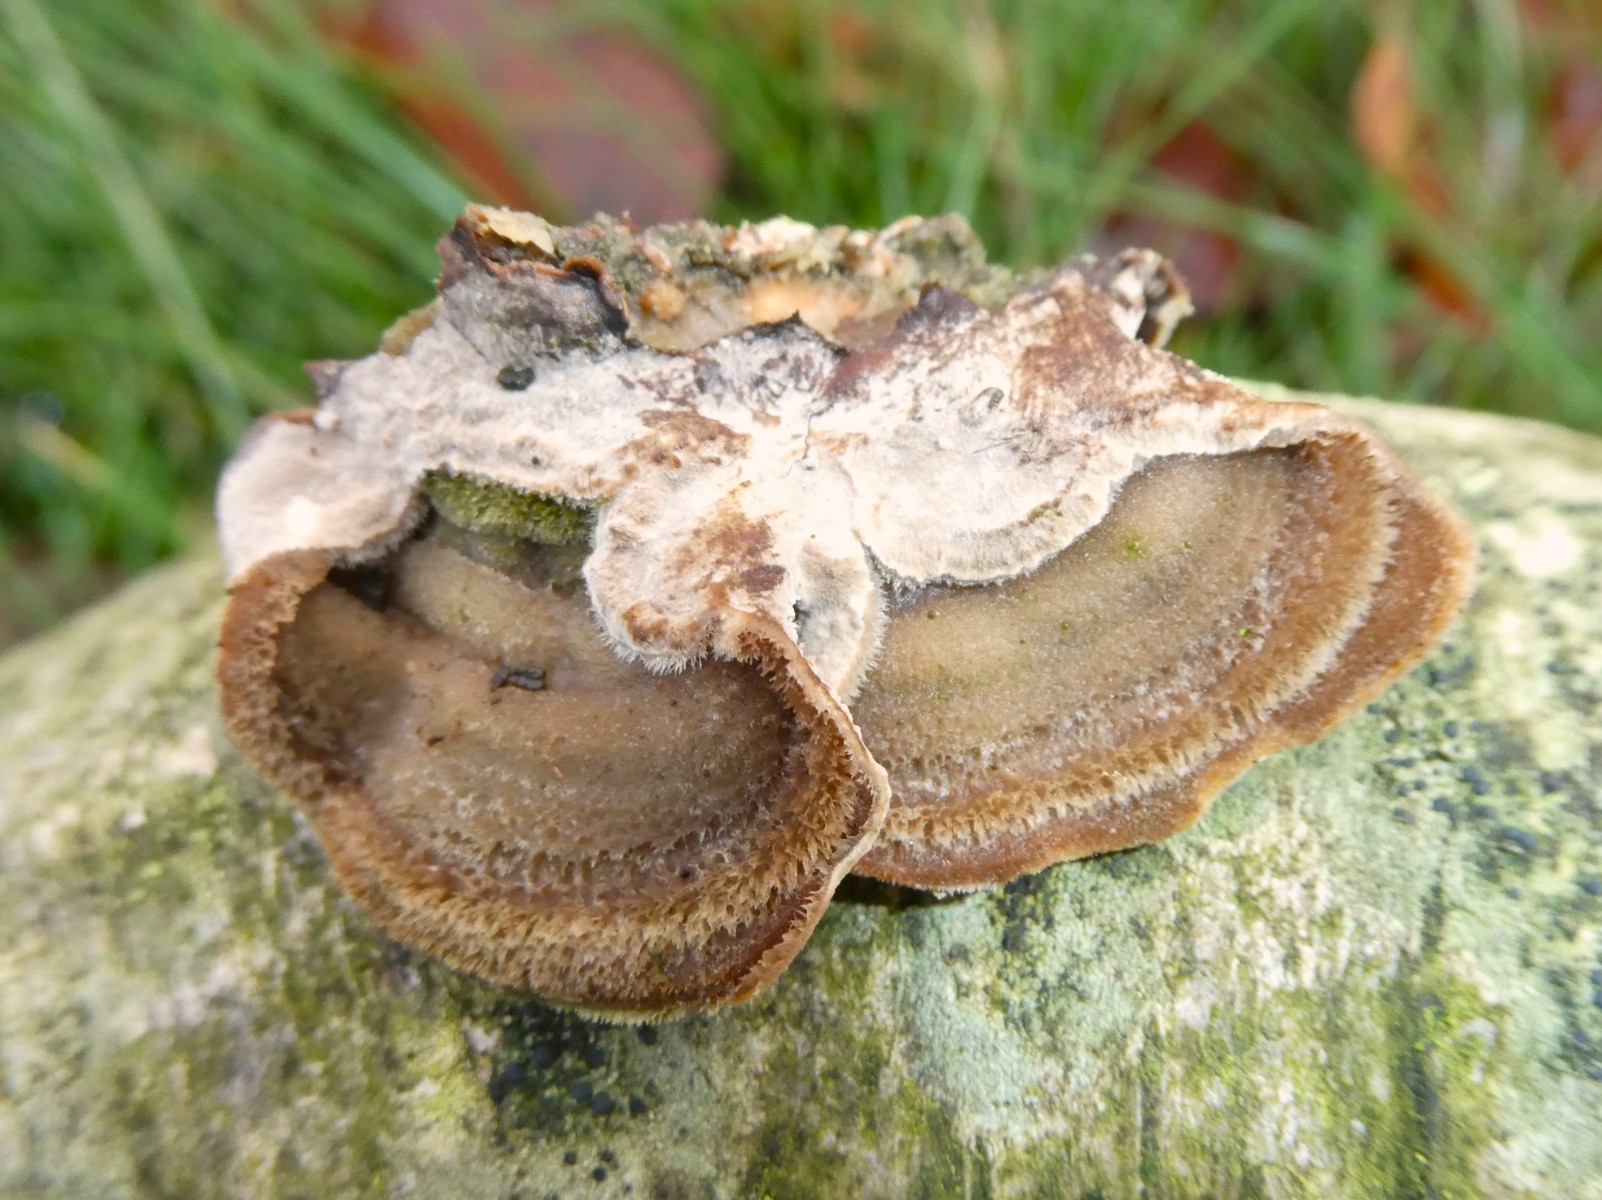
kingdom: Fungi
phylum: Basidiomycota
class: Agaricomycetes
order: Polyporales
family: Cerrenaceae
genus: Cerrena
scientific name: Cerrena unicolor
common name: ensfarvet læderporesvamp
